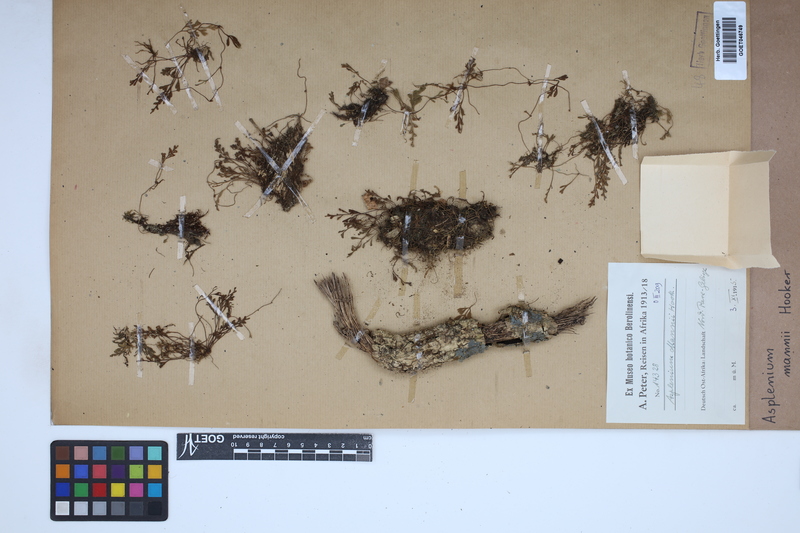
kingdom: Plantae
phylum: Tracheophyta
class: Polypodiopsida
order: Polypodiales
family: Aspleniaceae
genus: Asplenium
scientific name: Asplenium mannii
